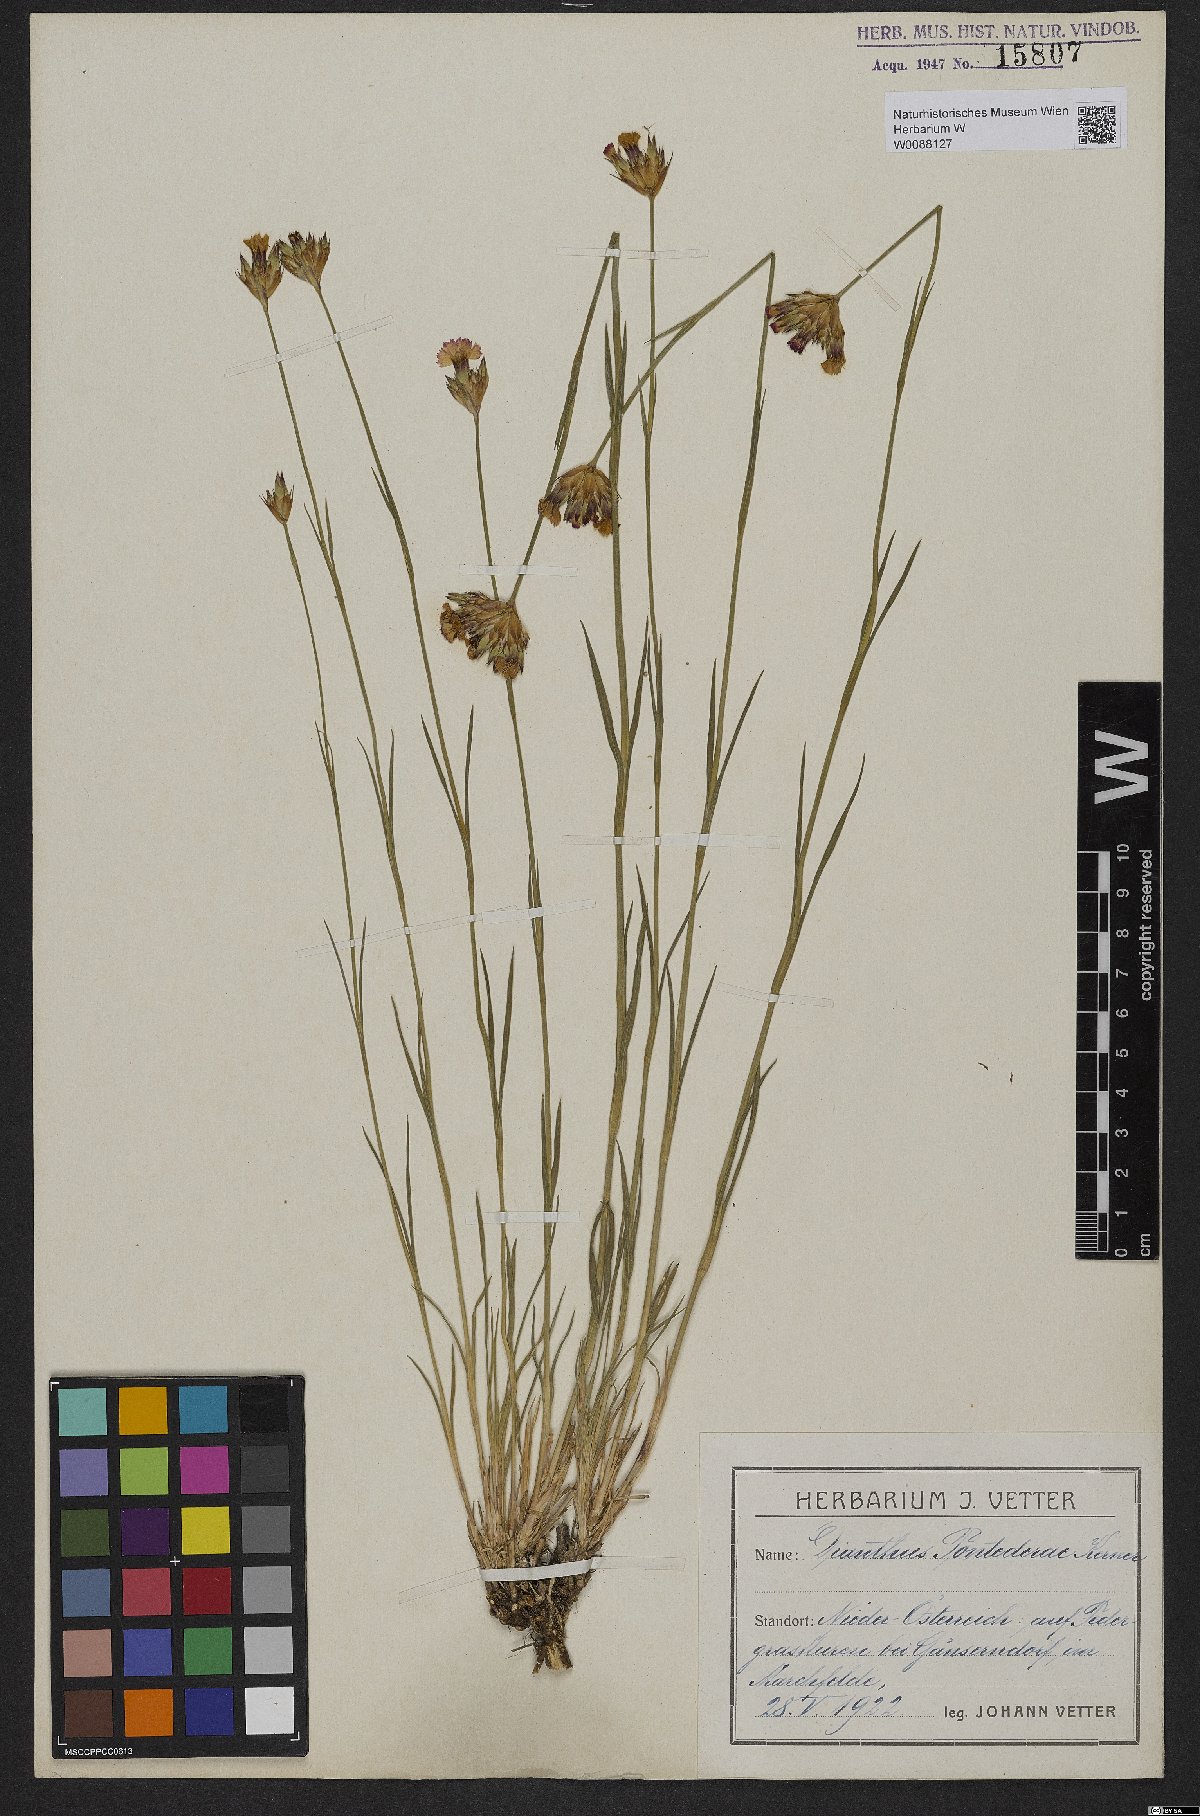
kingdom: Plantae
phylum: Tracheophyta
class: Magnoliopsida
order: Caryophyllales
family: Caryophyllaceae
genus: Dianthus
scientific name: Dianthus pontederae
